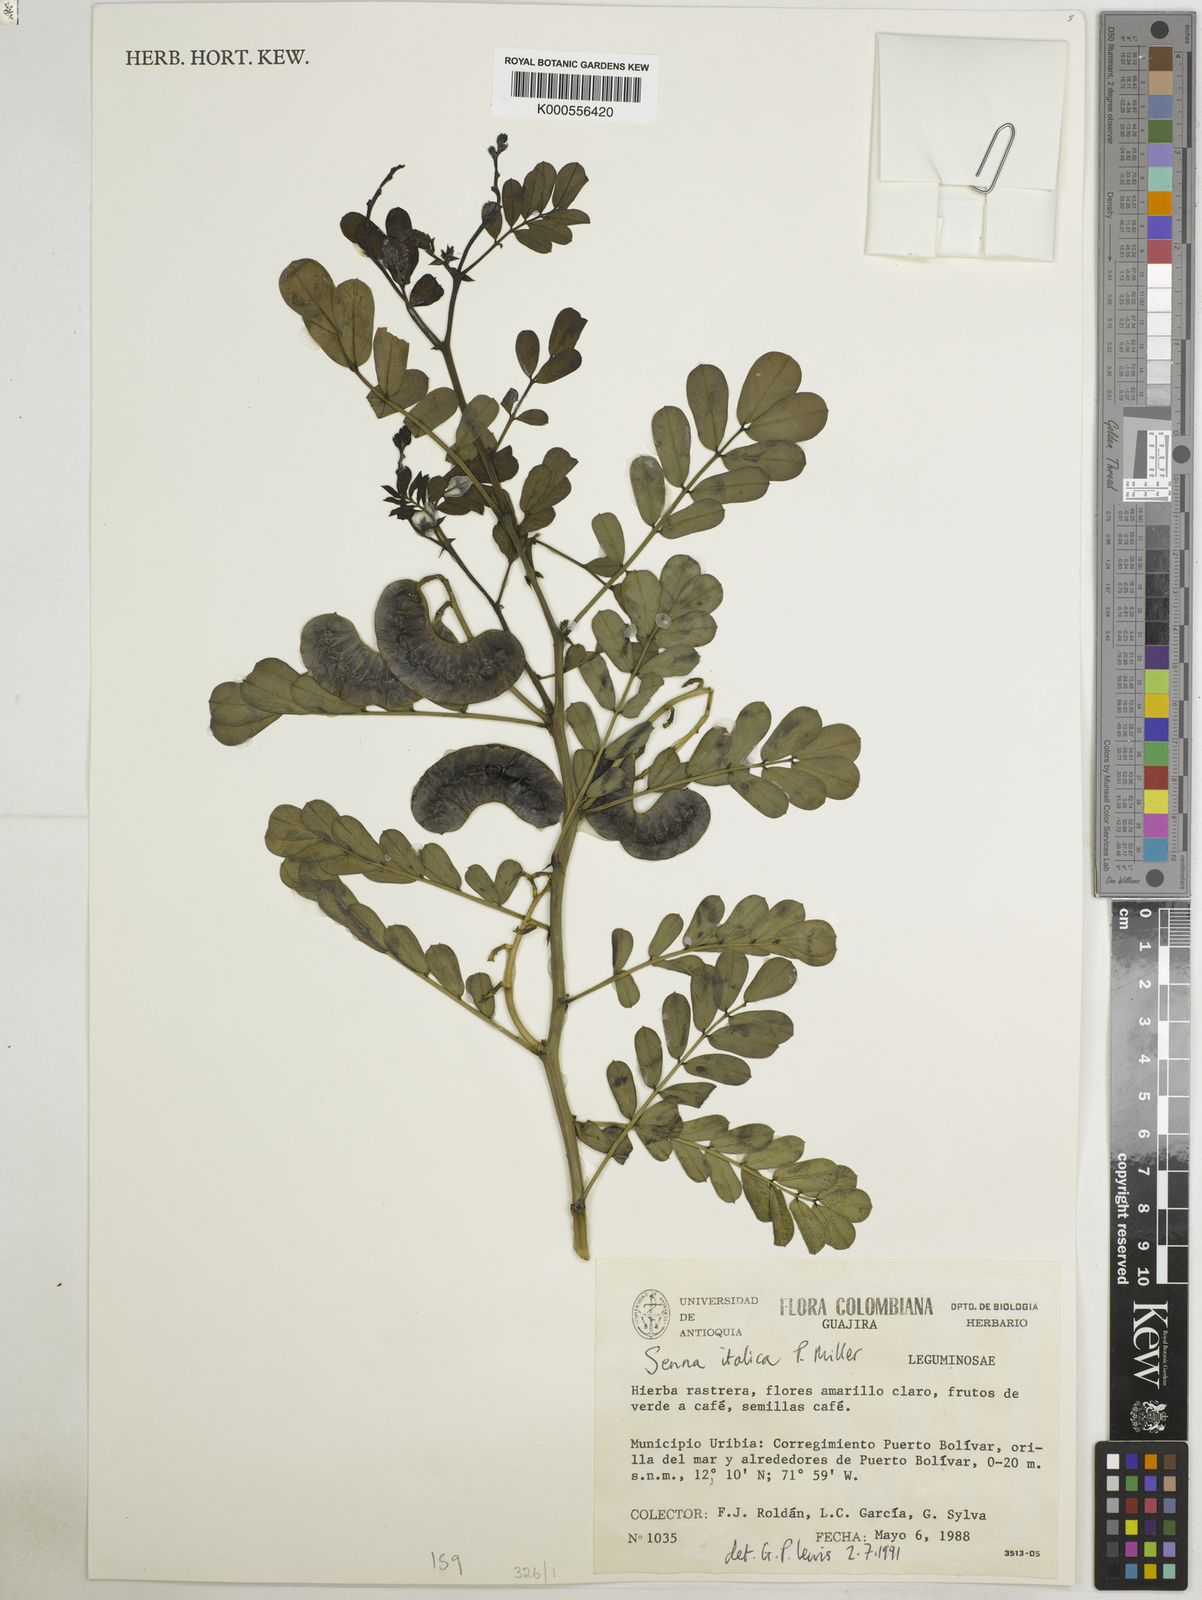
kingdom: Plantae
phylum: Tracheophyta
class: Magnoliopsida
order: Fabales
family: Fabaceae
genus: Senna
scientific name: Senna italica
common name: Port royal senna
